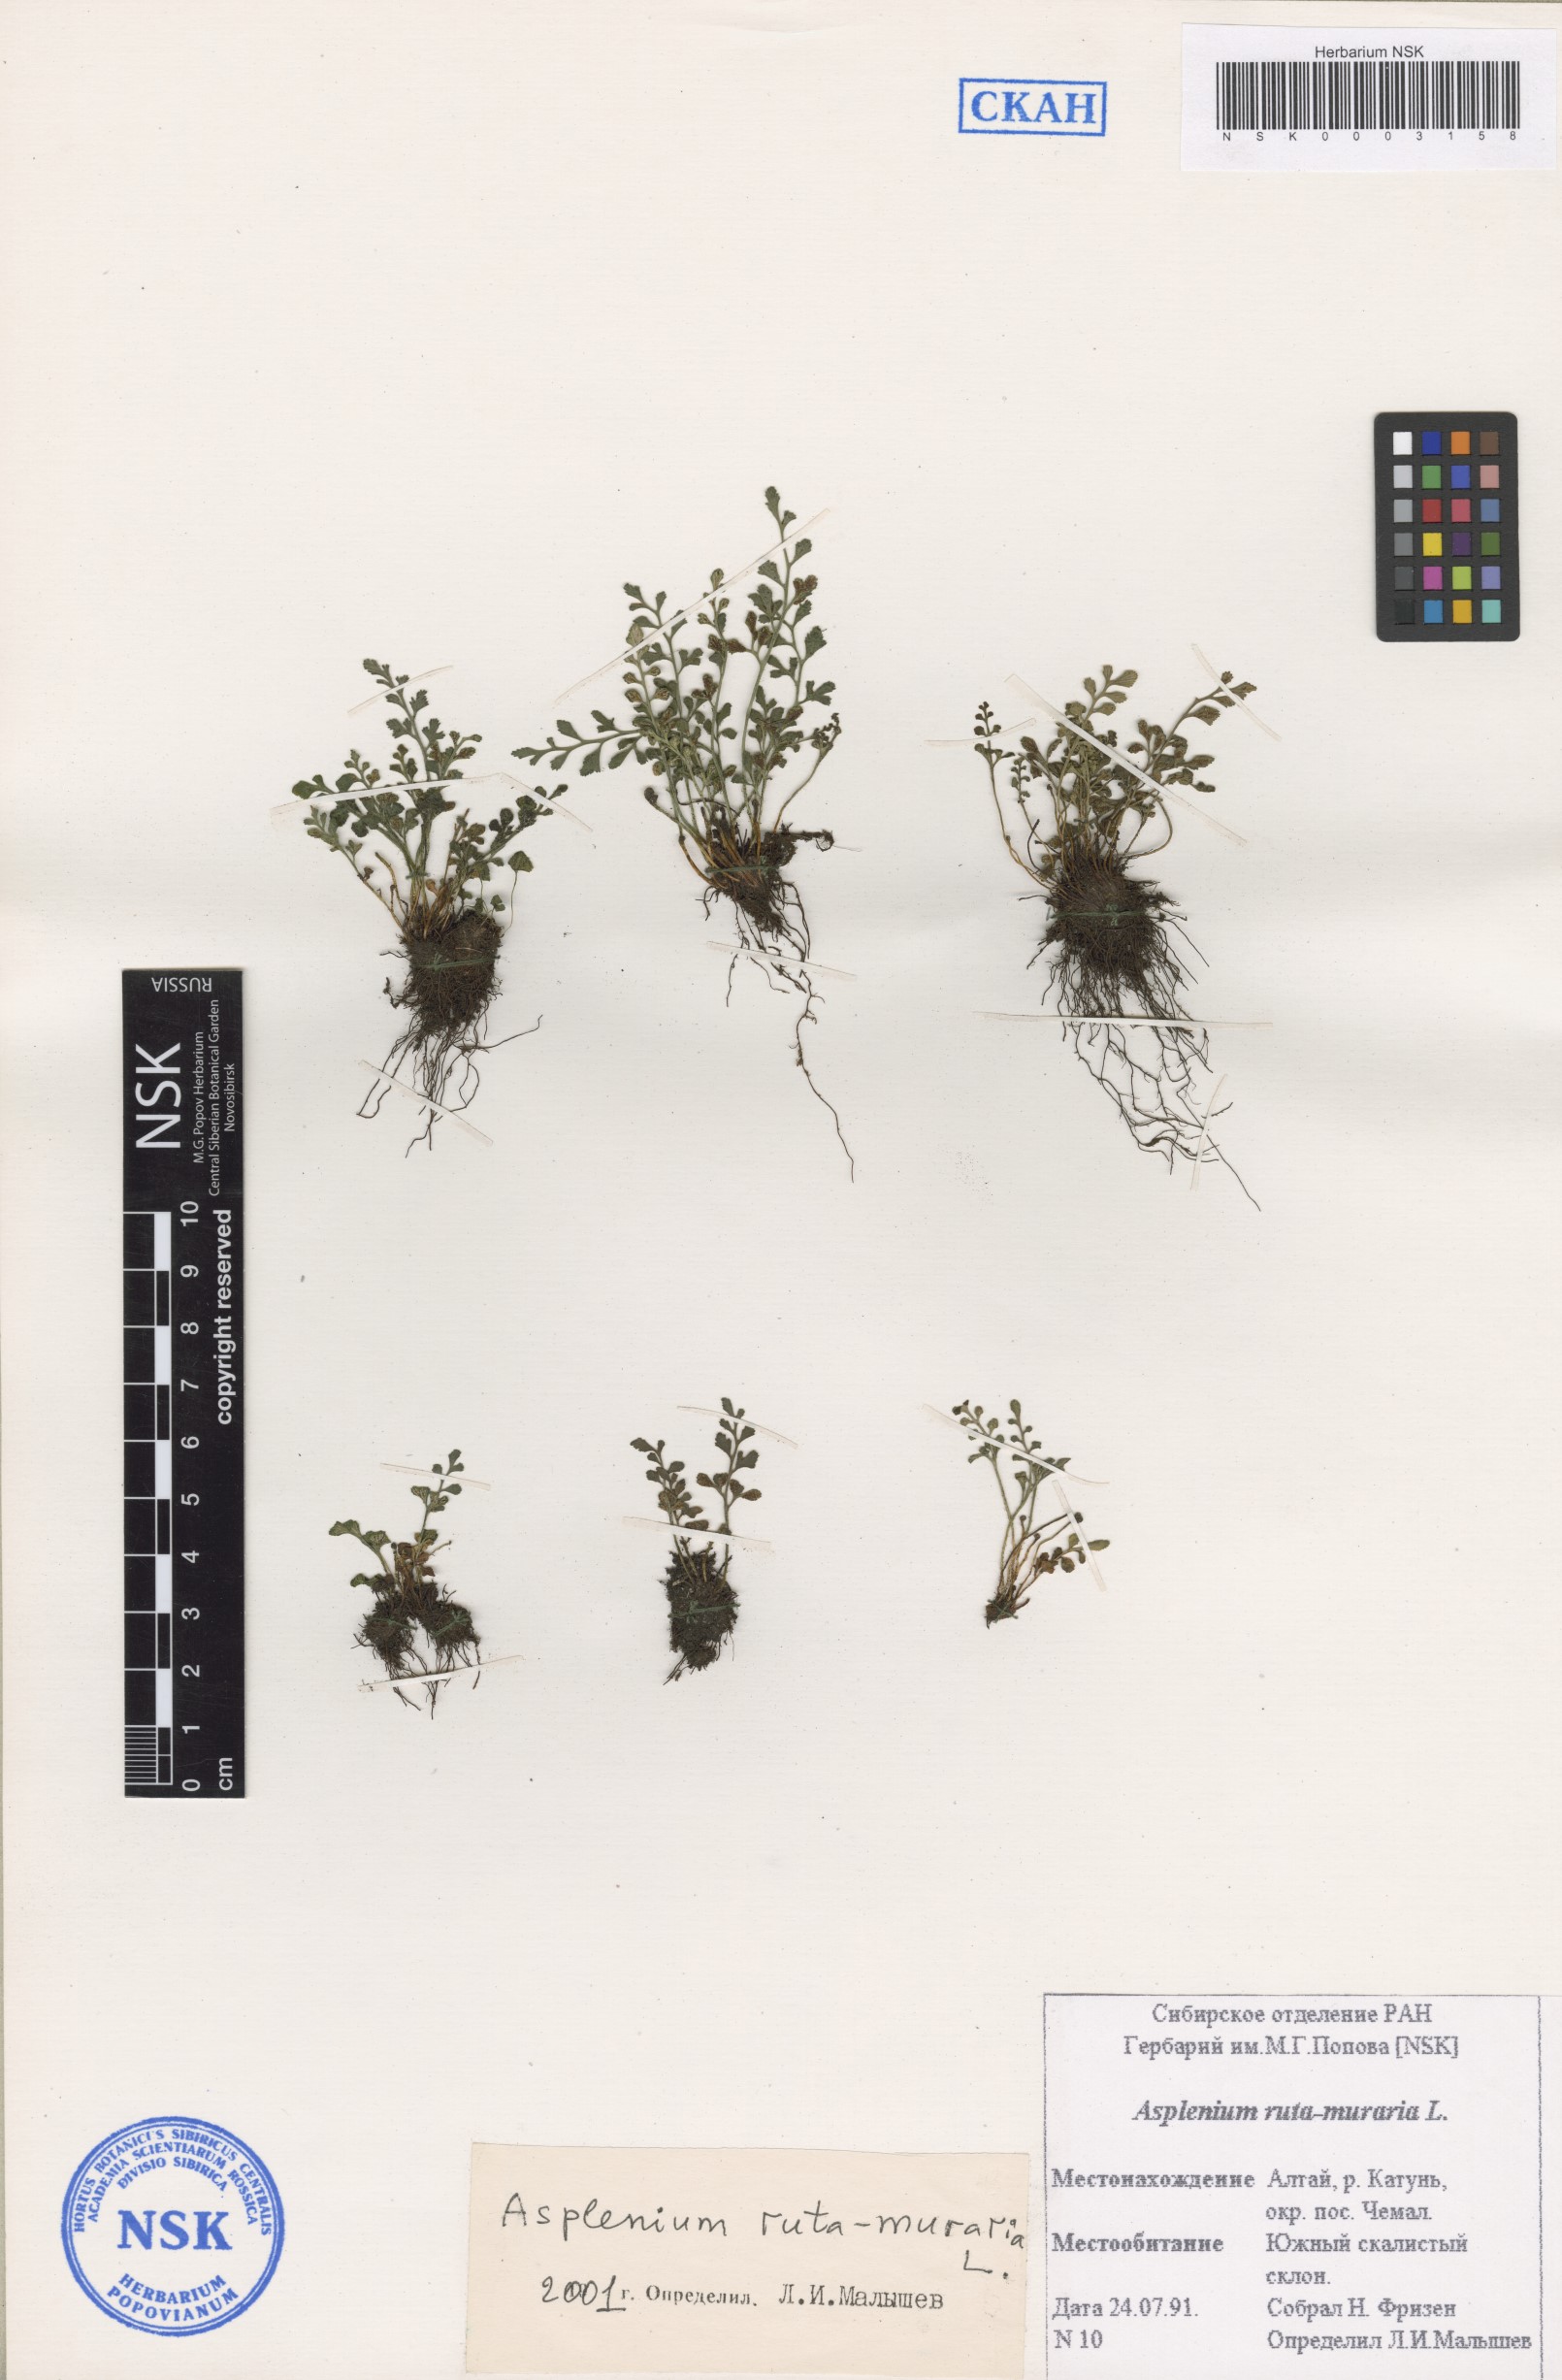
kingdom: Plantae
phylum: Tracheophyta
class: Polypodiopsida
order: Polypodiales
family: Aspleniaceae
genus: Asplenium
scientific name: Asplenium ruta-muraria
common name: Wall-rue
